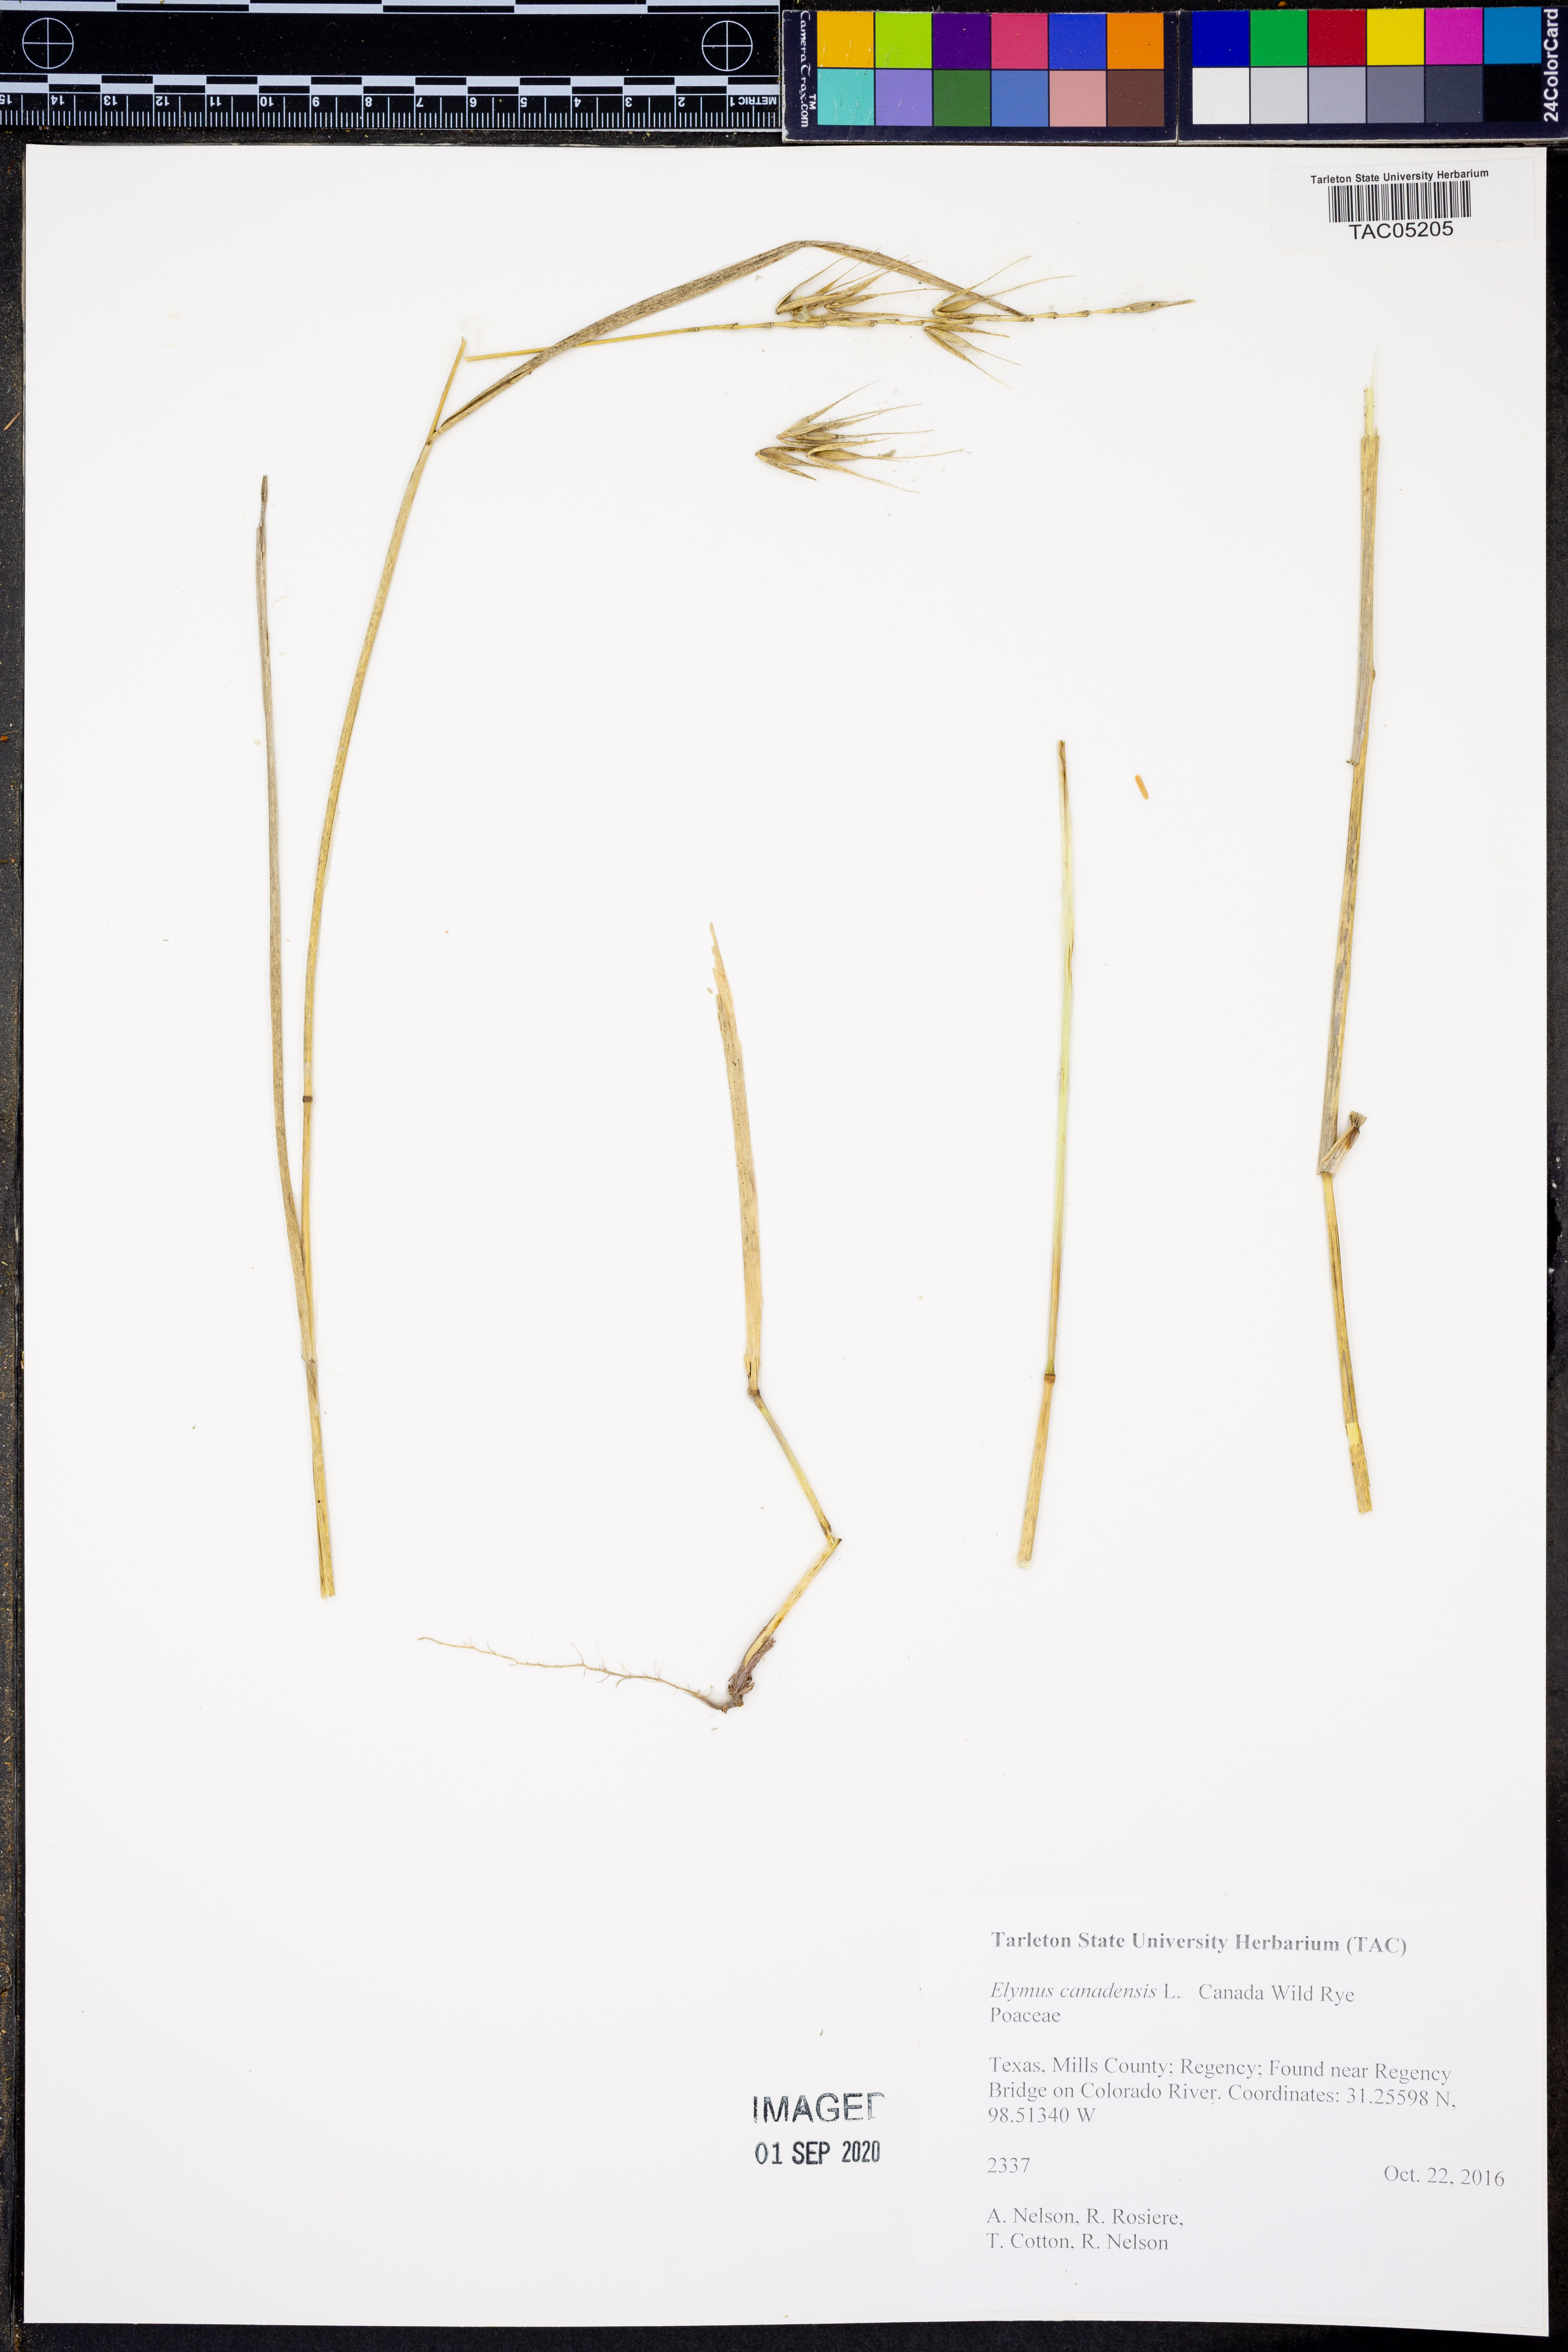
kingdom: Plantae
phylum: Tracheophyta
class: Liliopsida
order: Poales
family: Poaceae
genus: Elymus
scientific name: Elymus canadensis
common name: Canada wild rye
